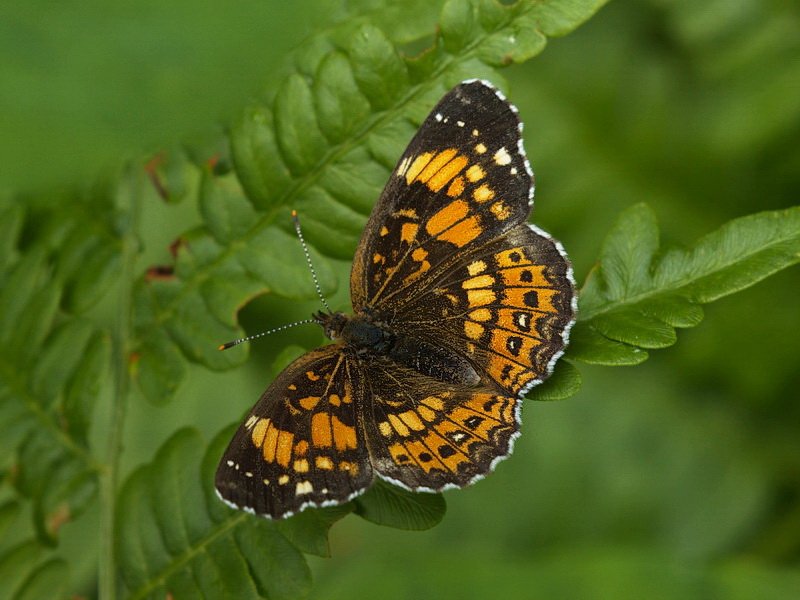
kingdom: Animalia
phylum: Arthropoda
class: Insecta
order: Lepidoptera
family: Nymphalidae
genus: Chlosyne
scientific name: Chlosyne nycteis
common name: Silvery Checkerspot
